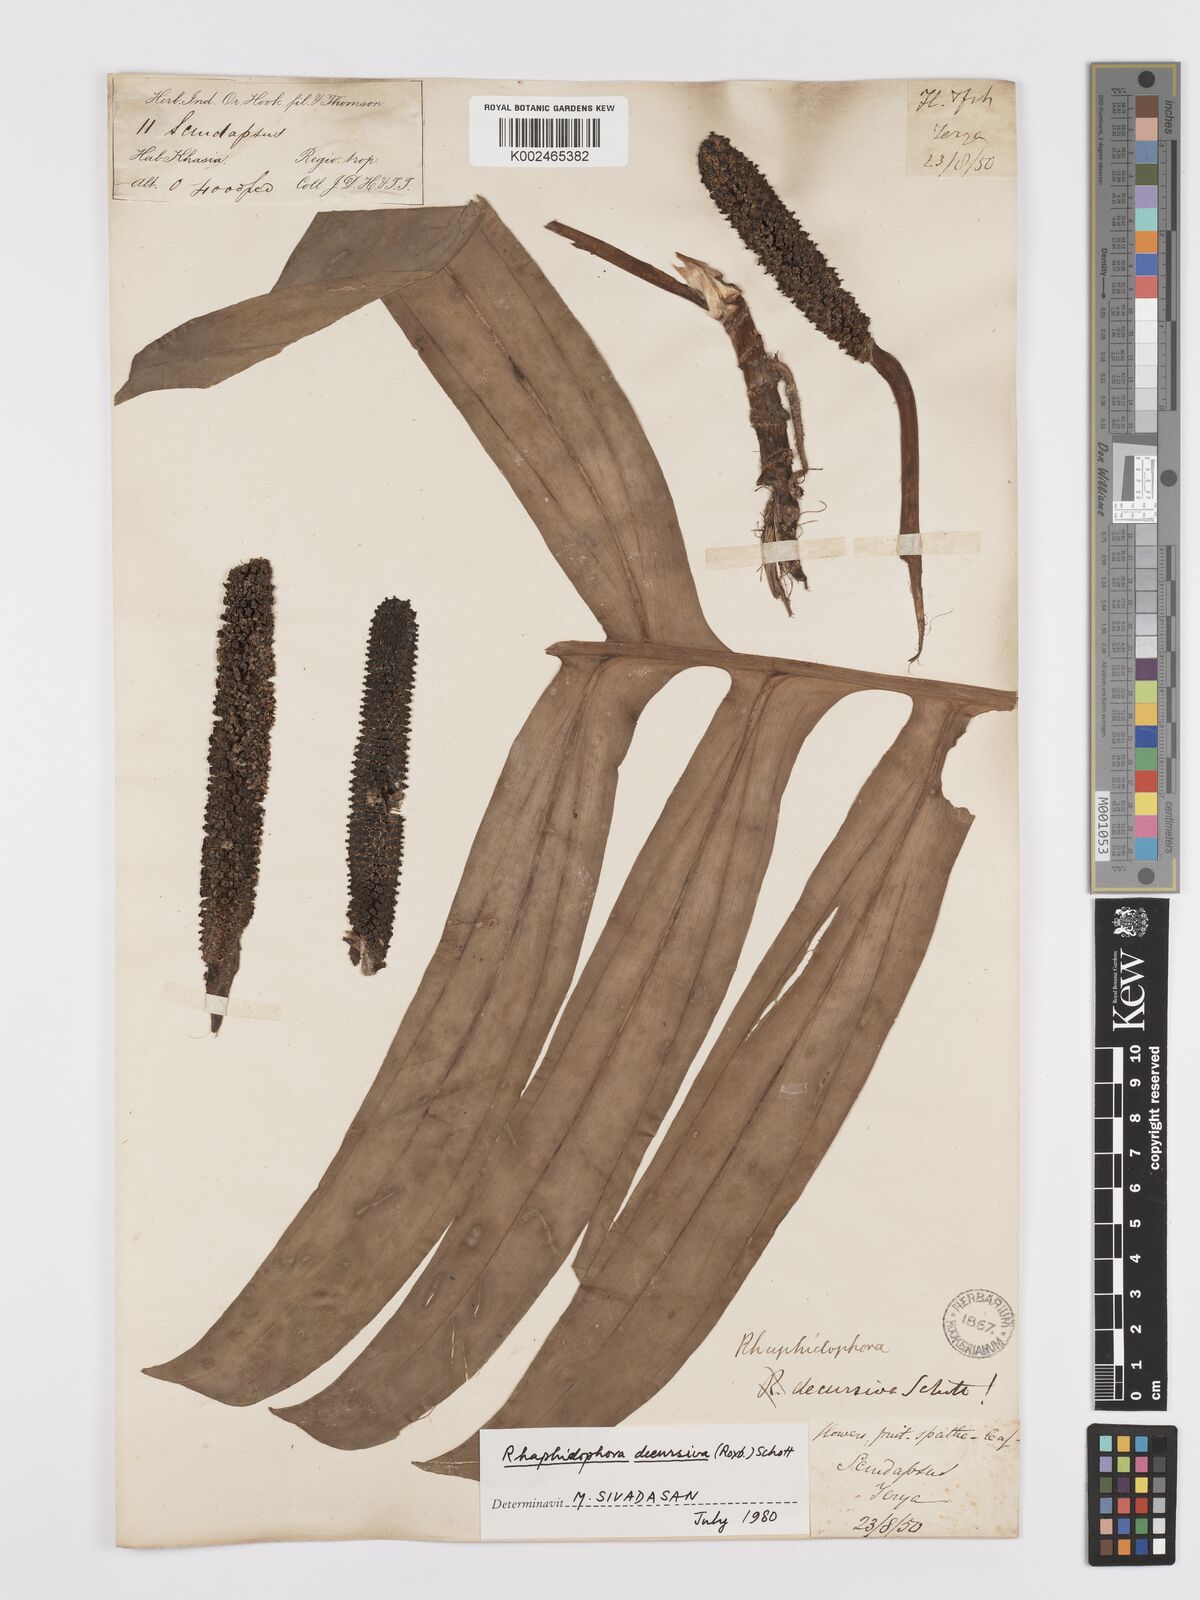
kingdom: Plantae
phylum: Tracheophyta
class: Liliopsida
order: Alismatales
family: Araceae
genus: Rhaphidophora
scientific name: Rhaphidophora decursiva
